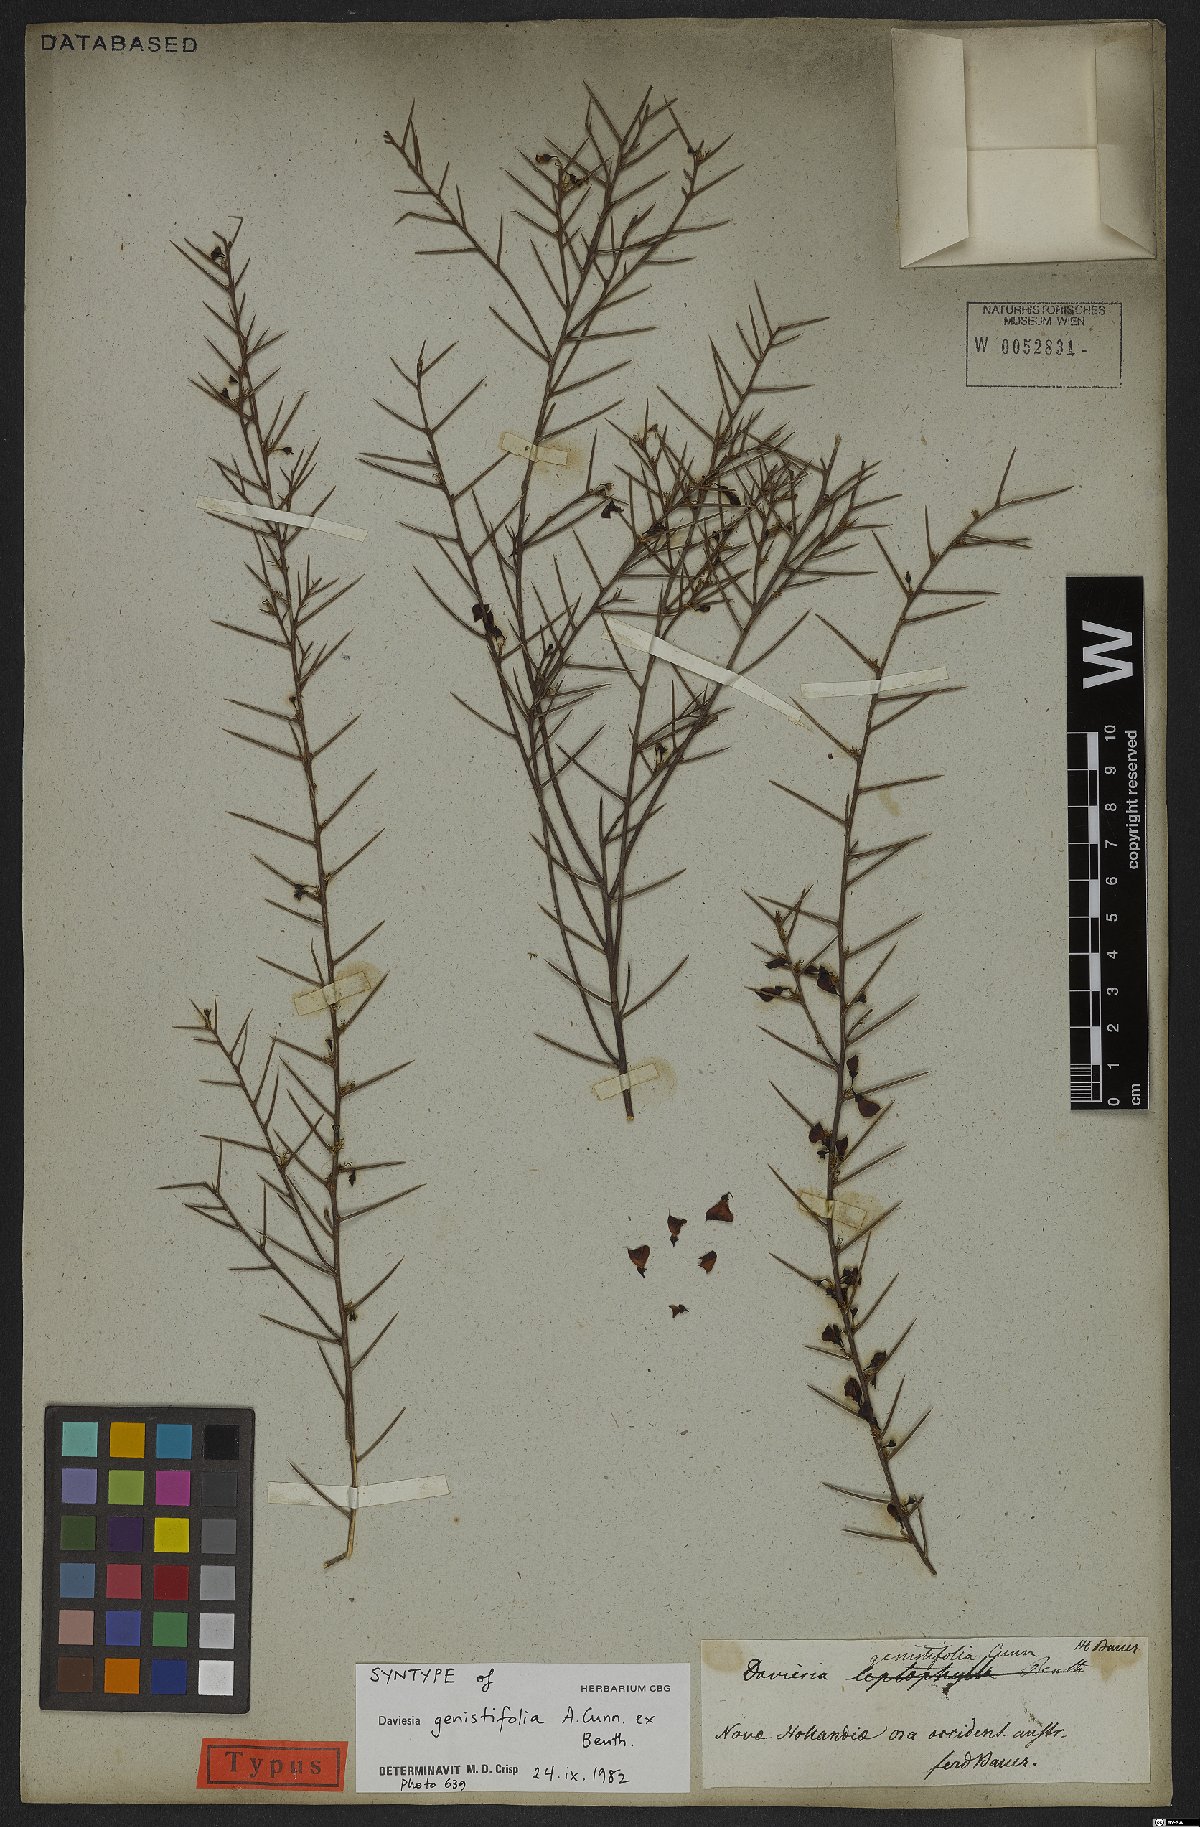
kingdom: Plantae
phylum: Tracheophyta
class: Magnoliopsida
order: Fabales
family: Fabaceae
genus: Daviesia
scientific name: Daviesia genistifolia
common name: Broom bitter-pea
